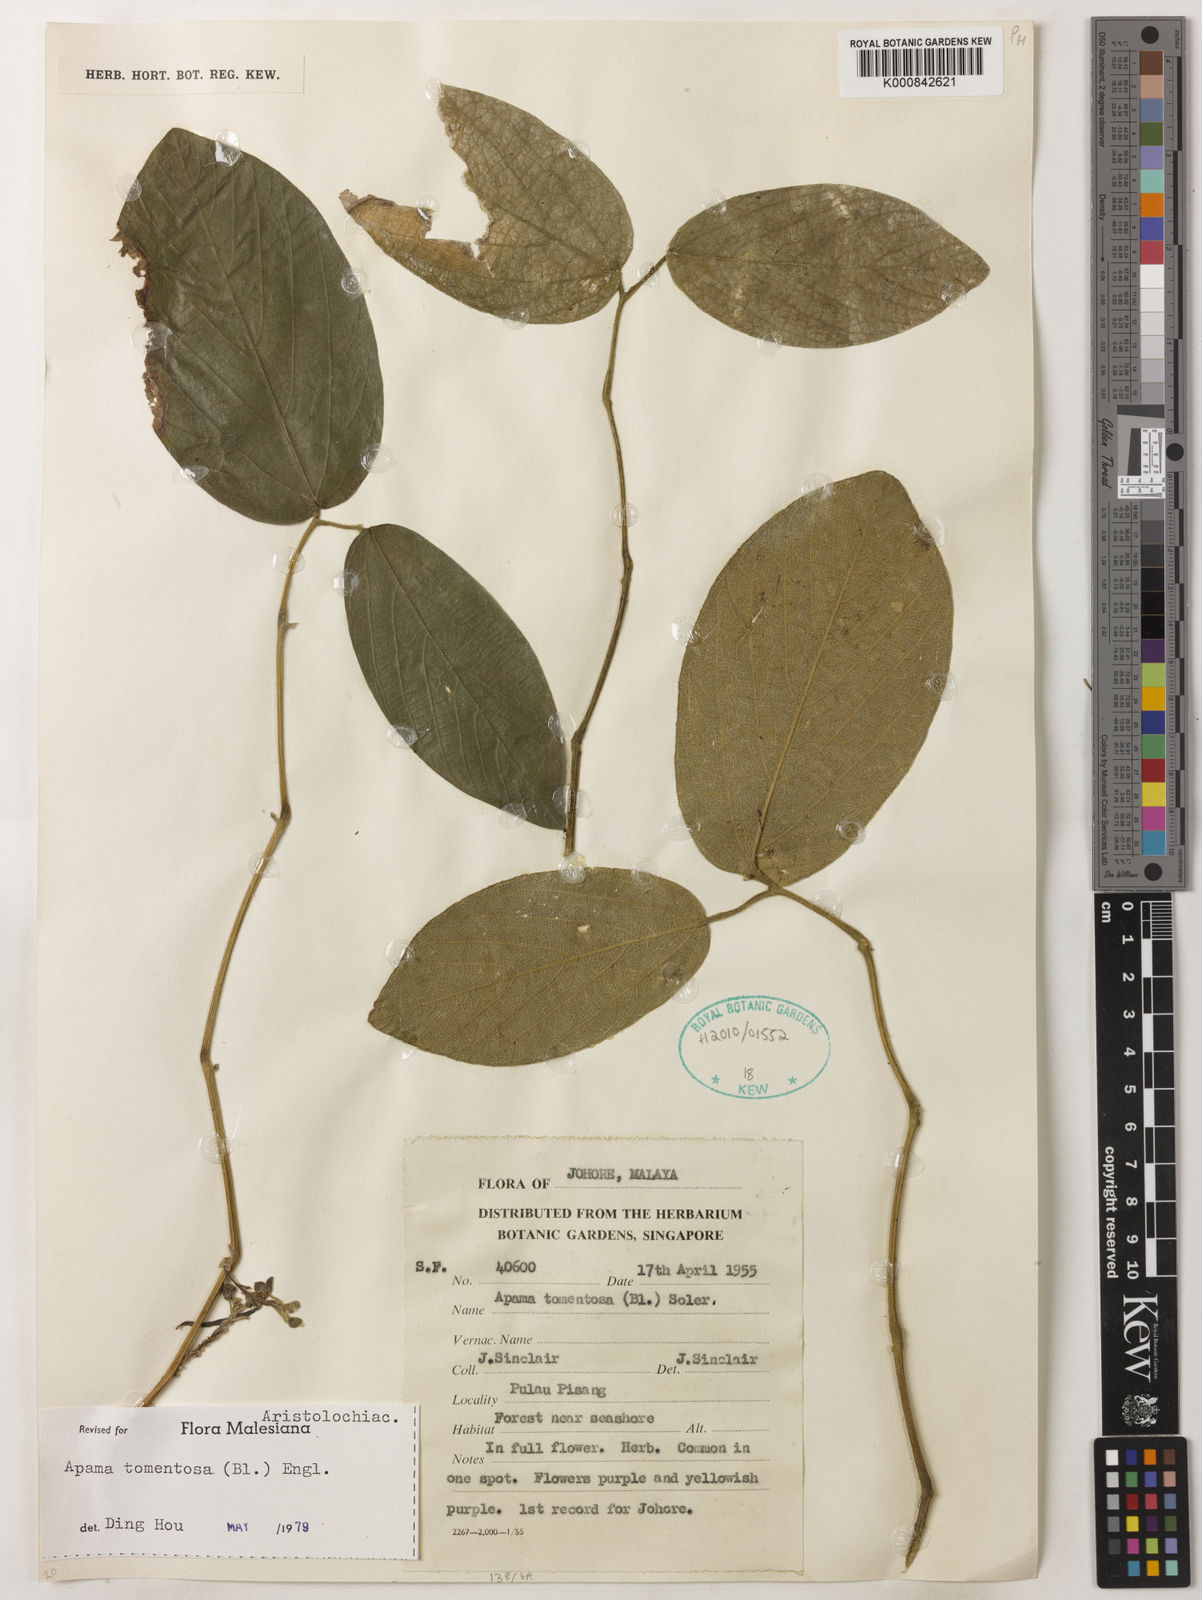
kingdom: Plantae
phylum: Tracheophyta
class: Magnoliopsida
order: Piperales
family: Aristolochiaceae
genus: Thottea
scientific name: Thottea tomentosa
